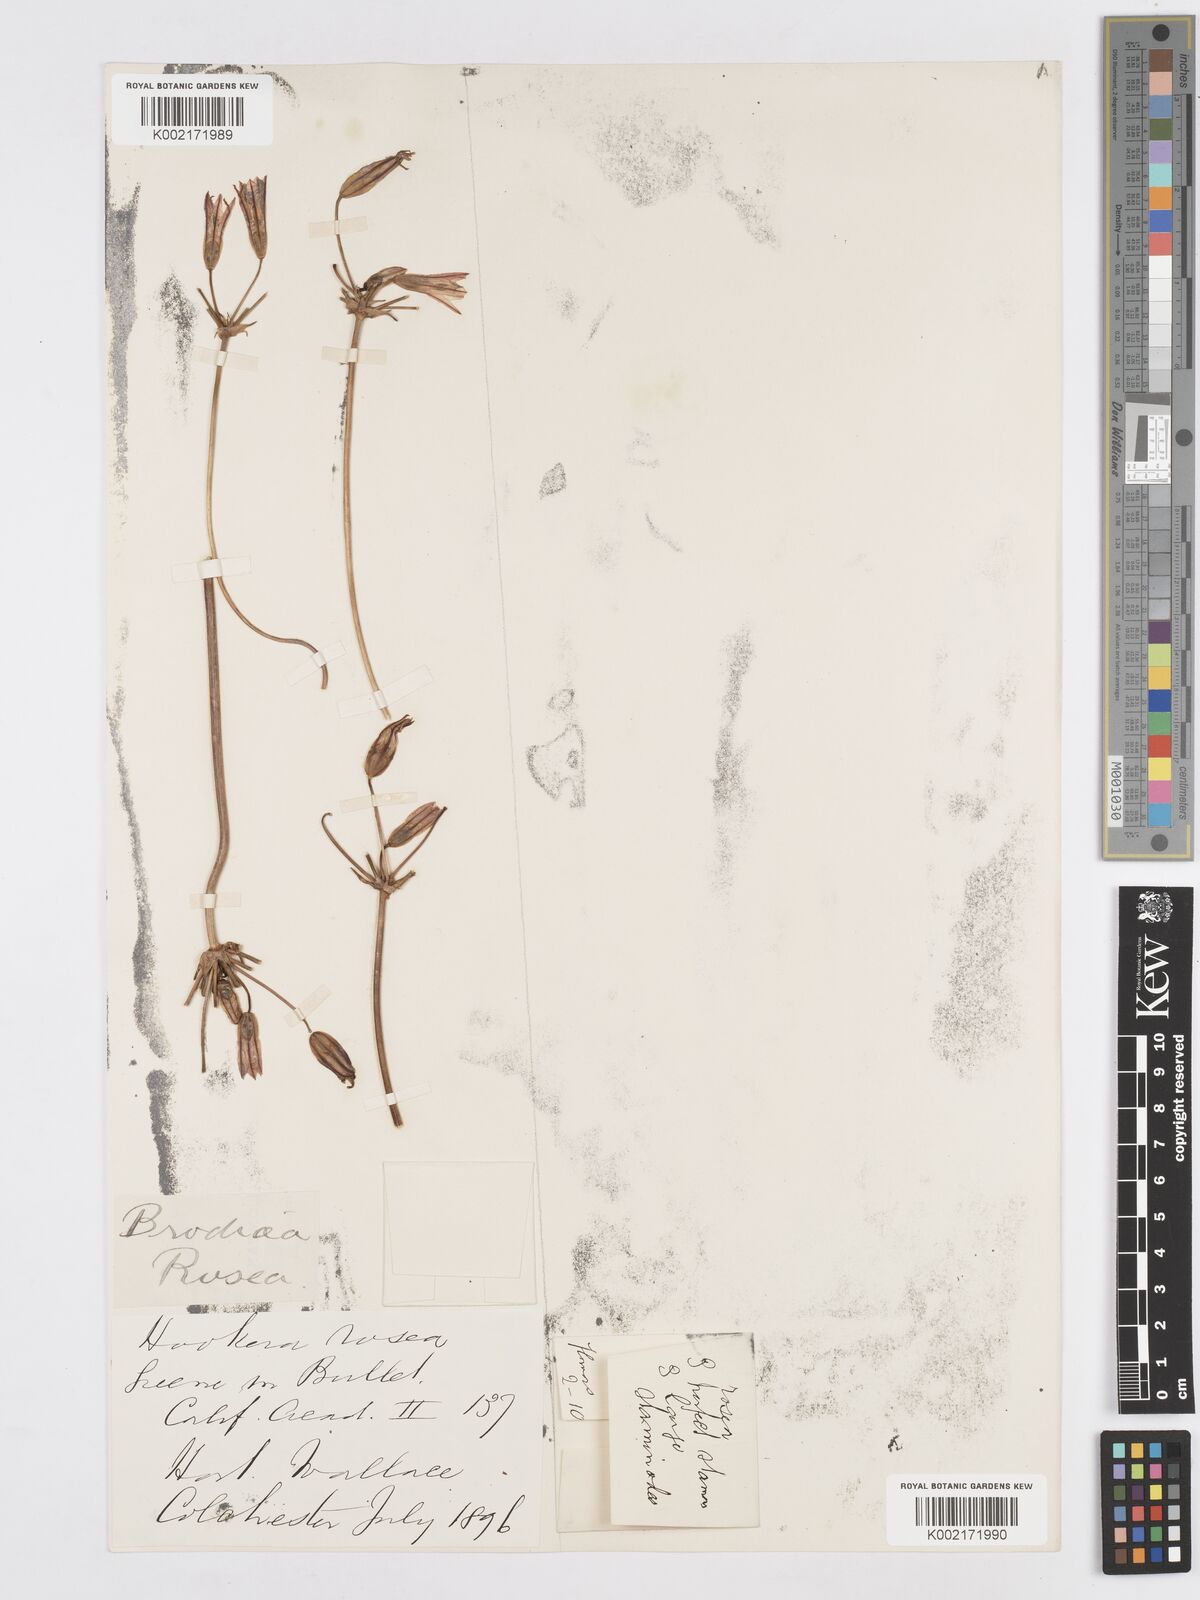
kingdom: Plantae
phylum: Tracheophyta
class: Liliopsida
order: Asparagales
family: Asparagaceae
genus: Brodiaea
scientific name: Brodiaea coronaria
